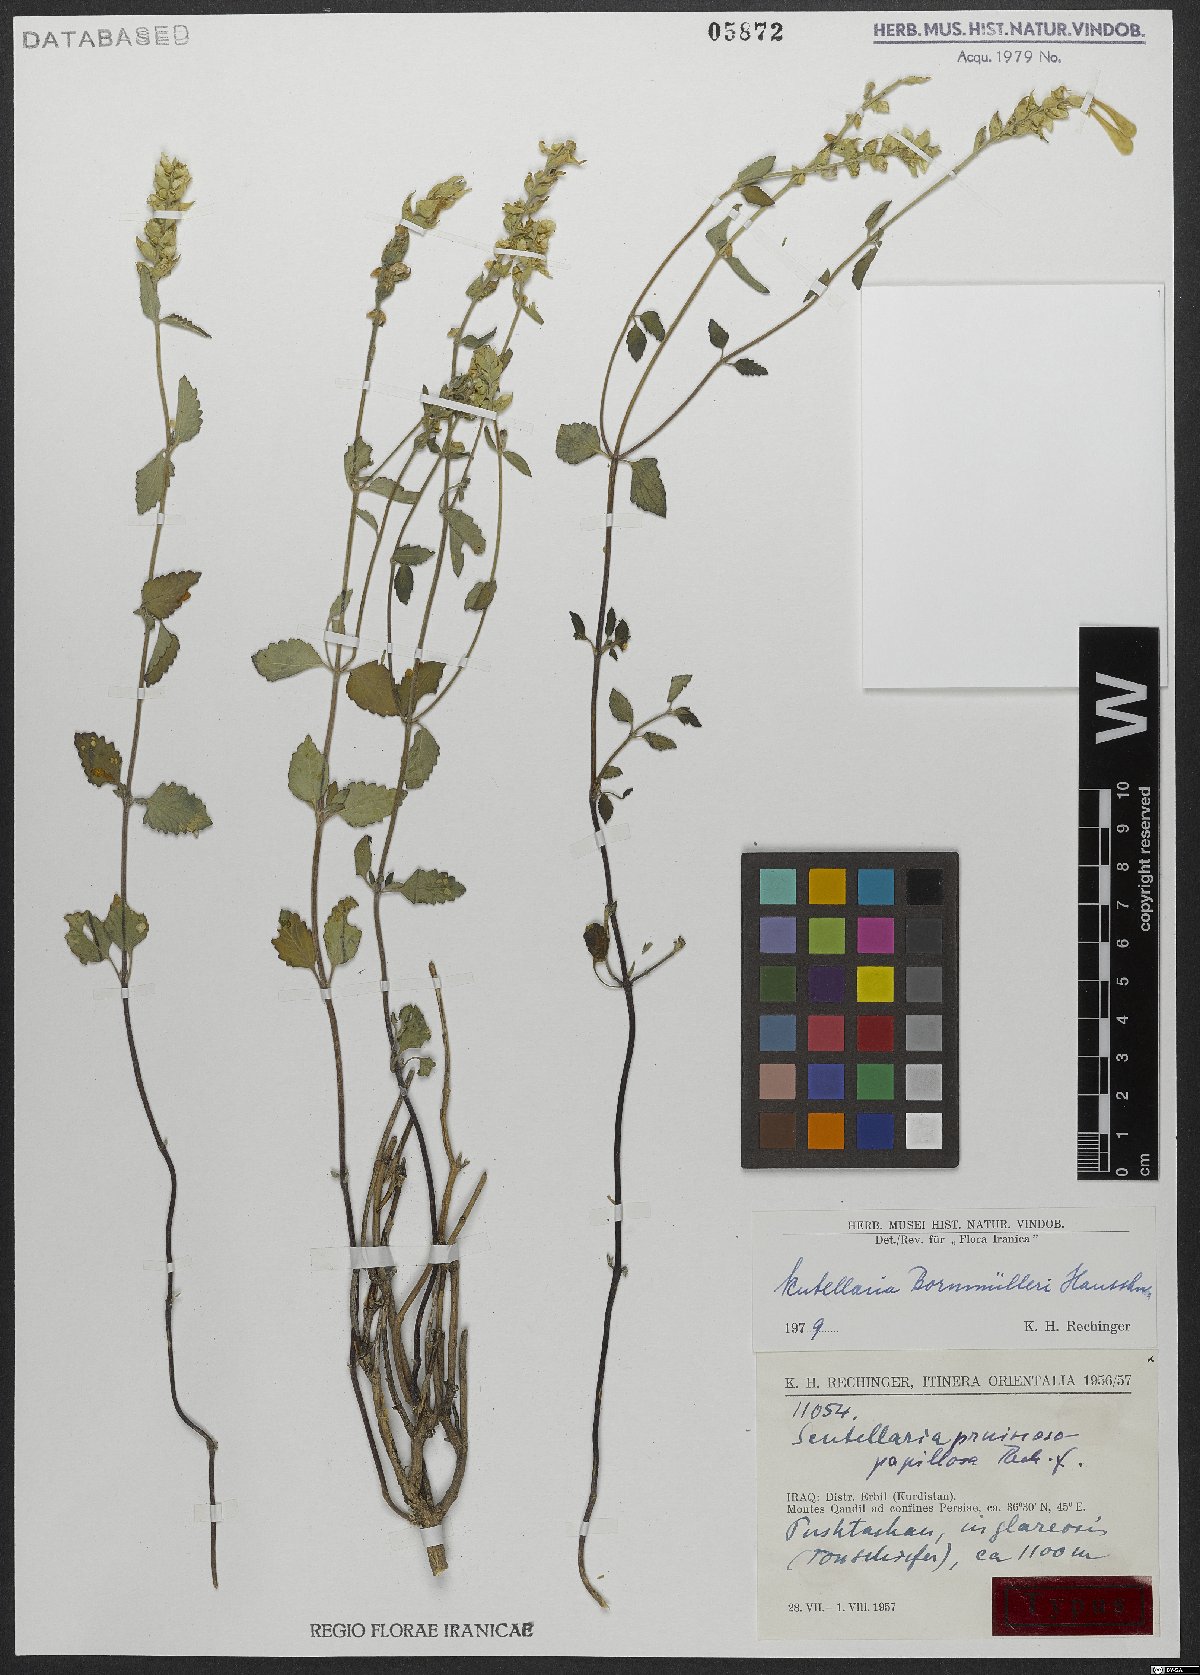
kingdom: Plantae
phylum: Tracheophyta
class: Magnoliopsida
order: Lamiales
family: Lamiaceae
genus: Scutellaria
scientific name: Scutellaria bornmuelleri
